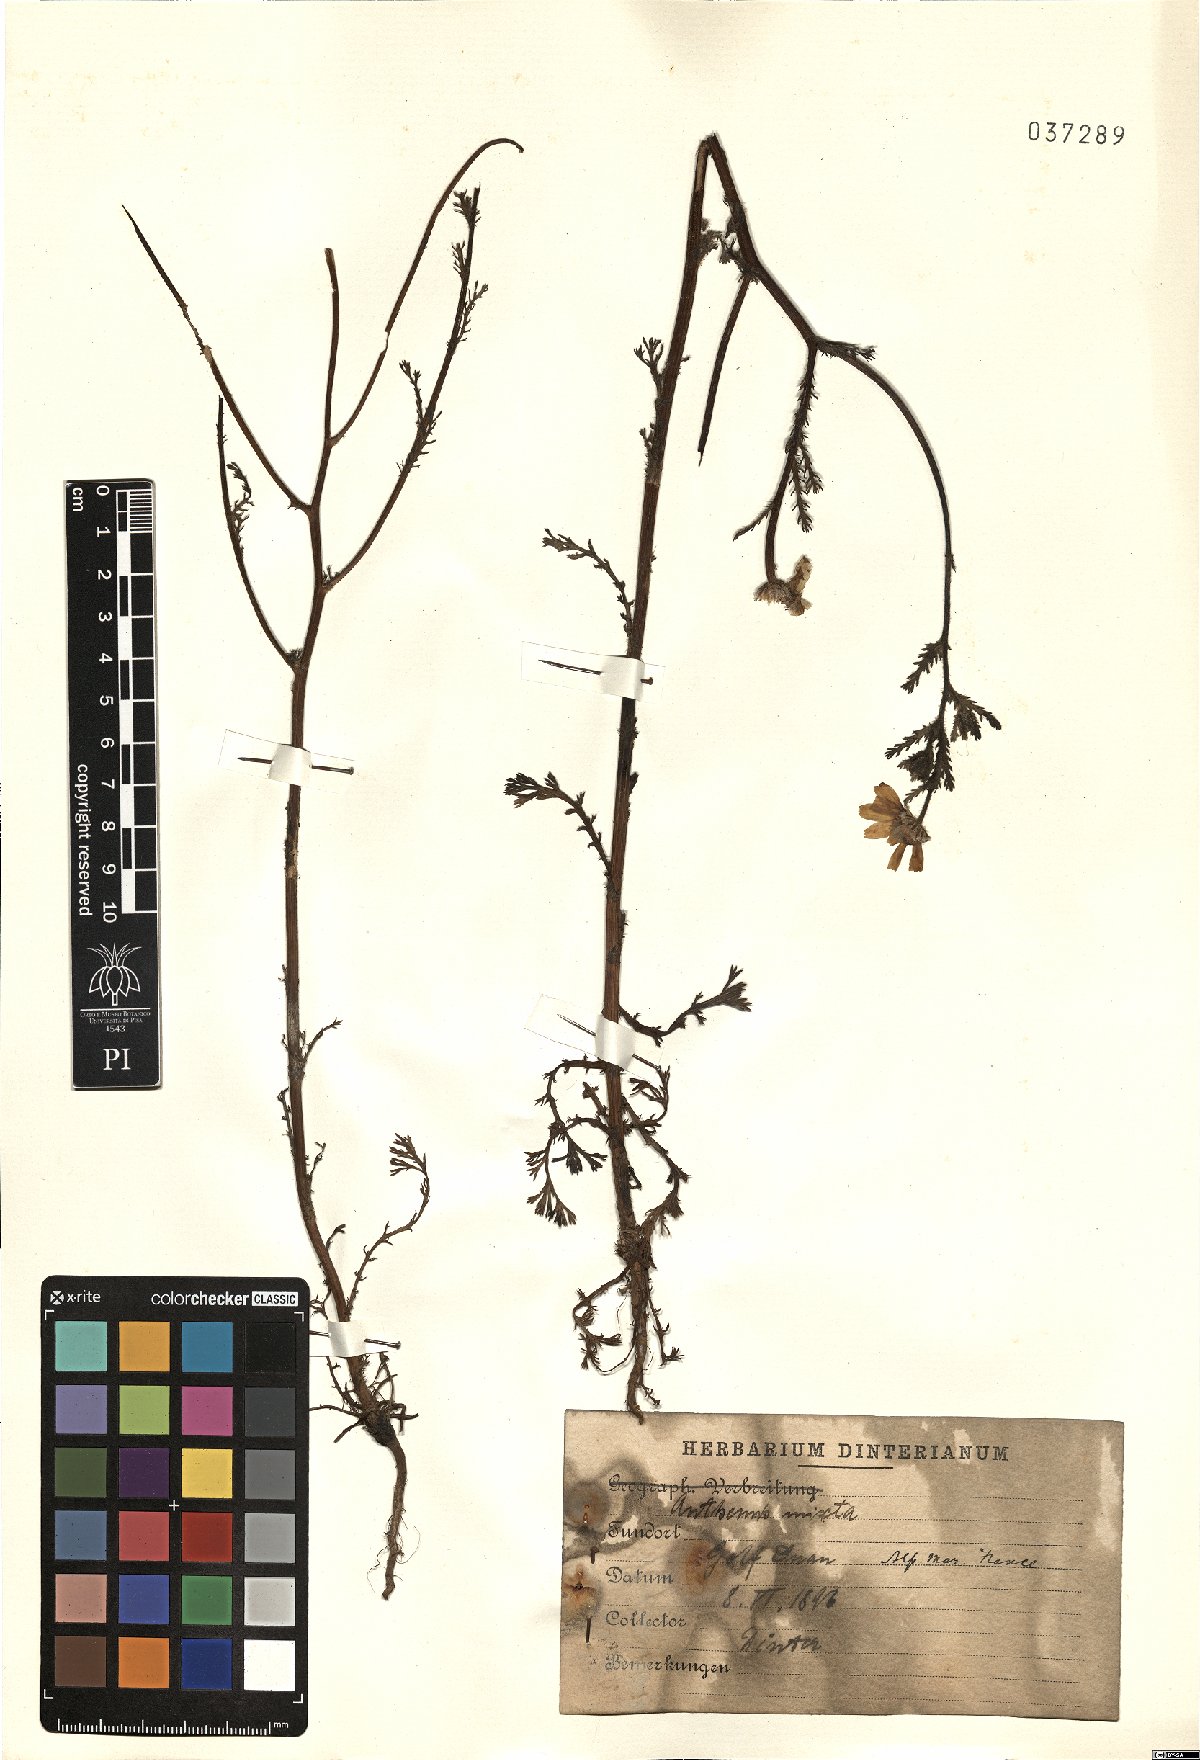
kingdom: Plantae
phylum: Tracheophyta
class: Magnoliopsida
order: Asterales
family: Asteraceae
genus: Cladanthus
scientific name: Cladanthus mixtus
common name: Weedy dogfennel
